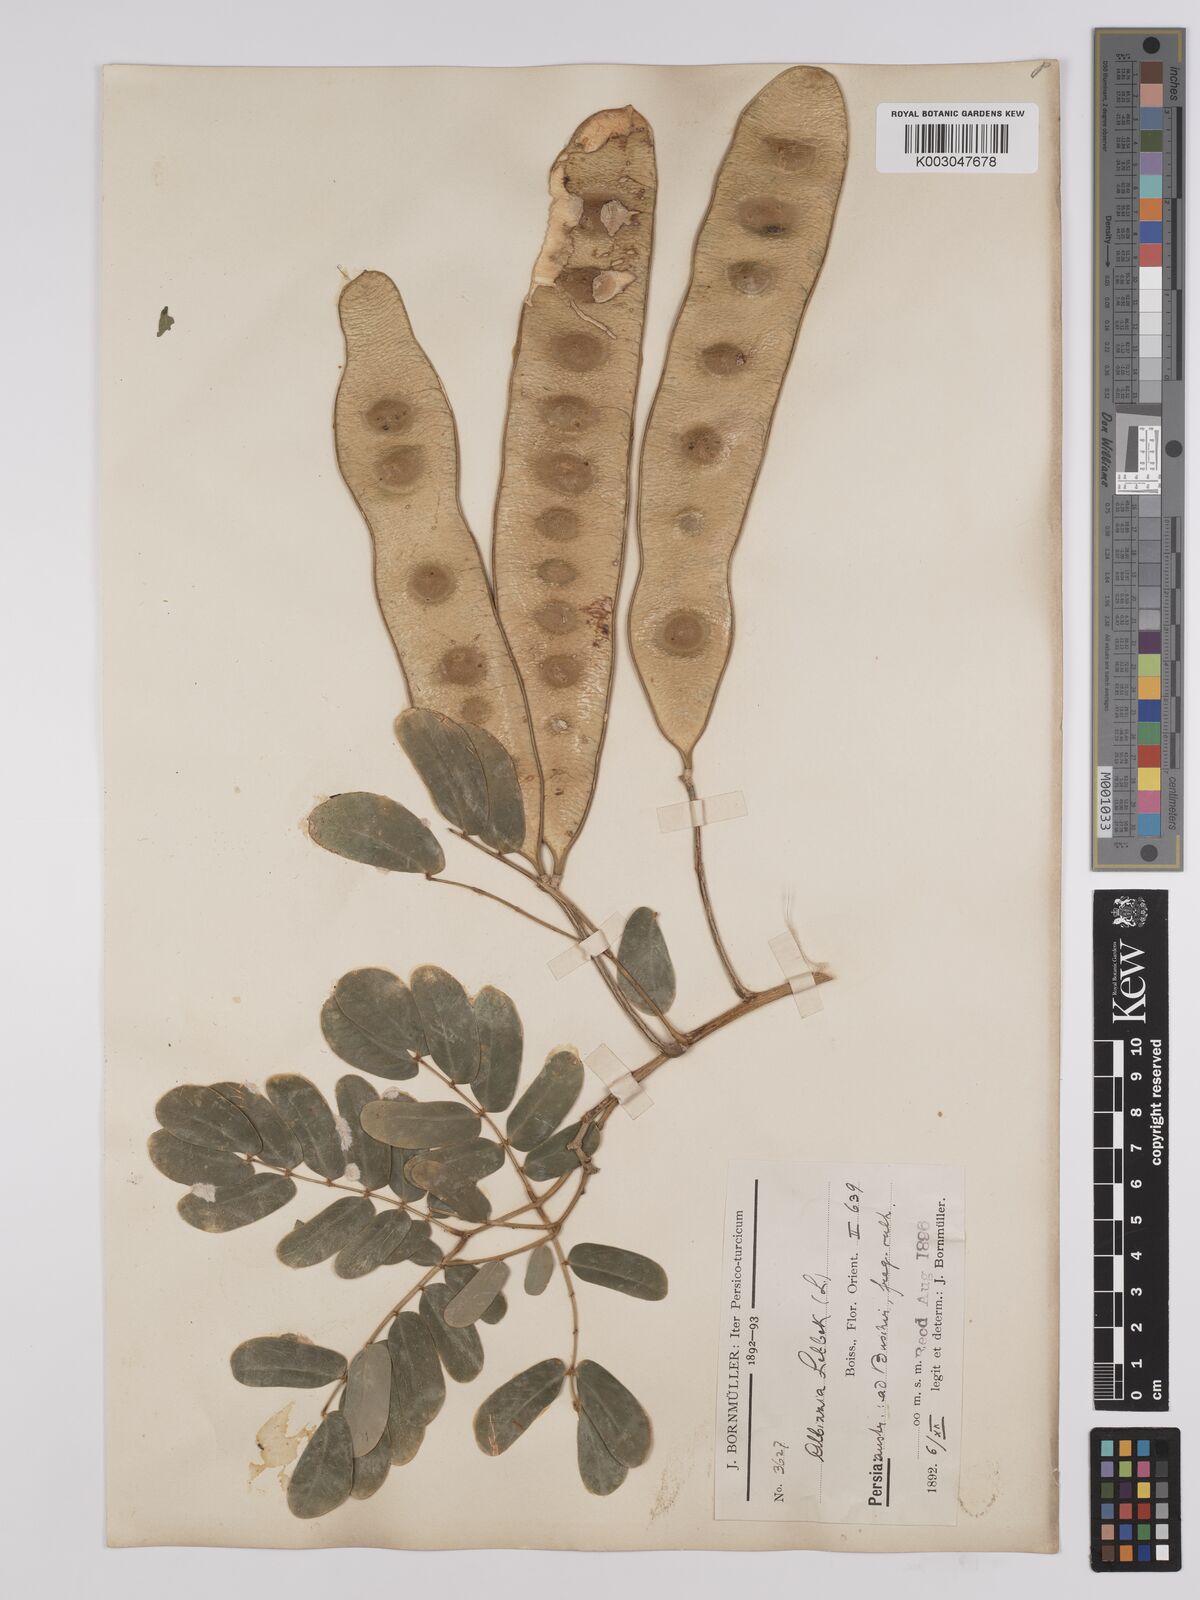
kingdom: Plantae
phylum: Tracheophyta
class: Magnoliopsida
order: Fabales
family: Fabaceae
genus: Albizia
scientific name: Albizia lebbeck
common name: Woman's tongue
